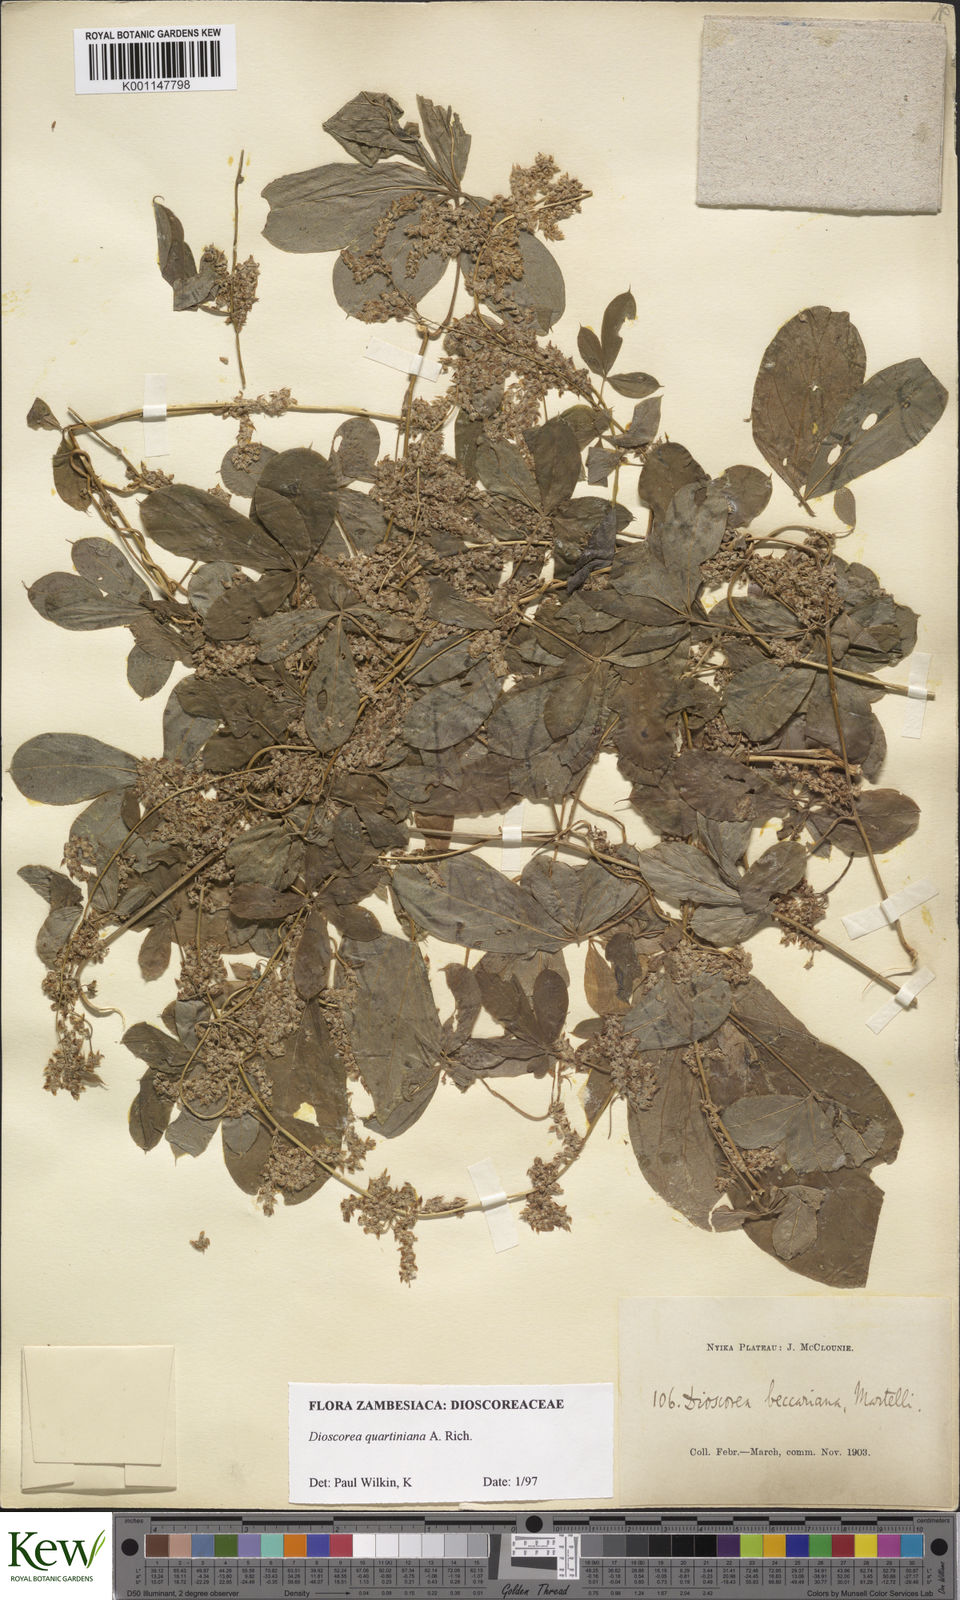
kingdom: Plantae
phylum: Tracheophyta
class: Liliopsida
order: Dioscoreales
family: Dioscoreaceae
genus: Dioscorea
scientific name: Dioscorea quartiniana
